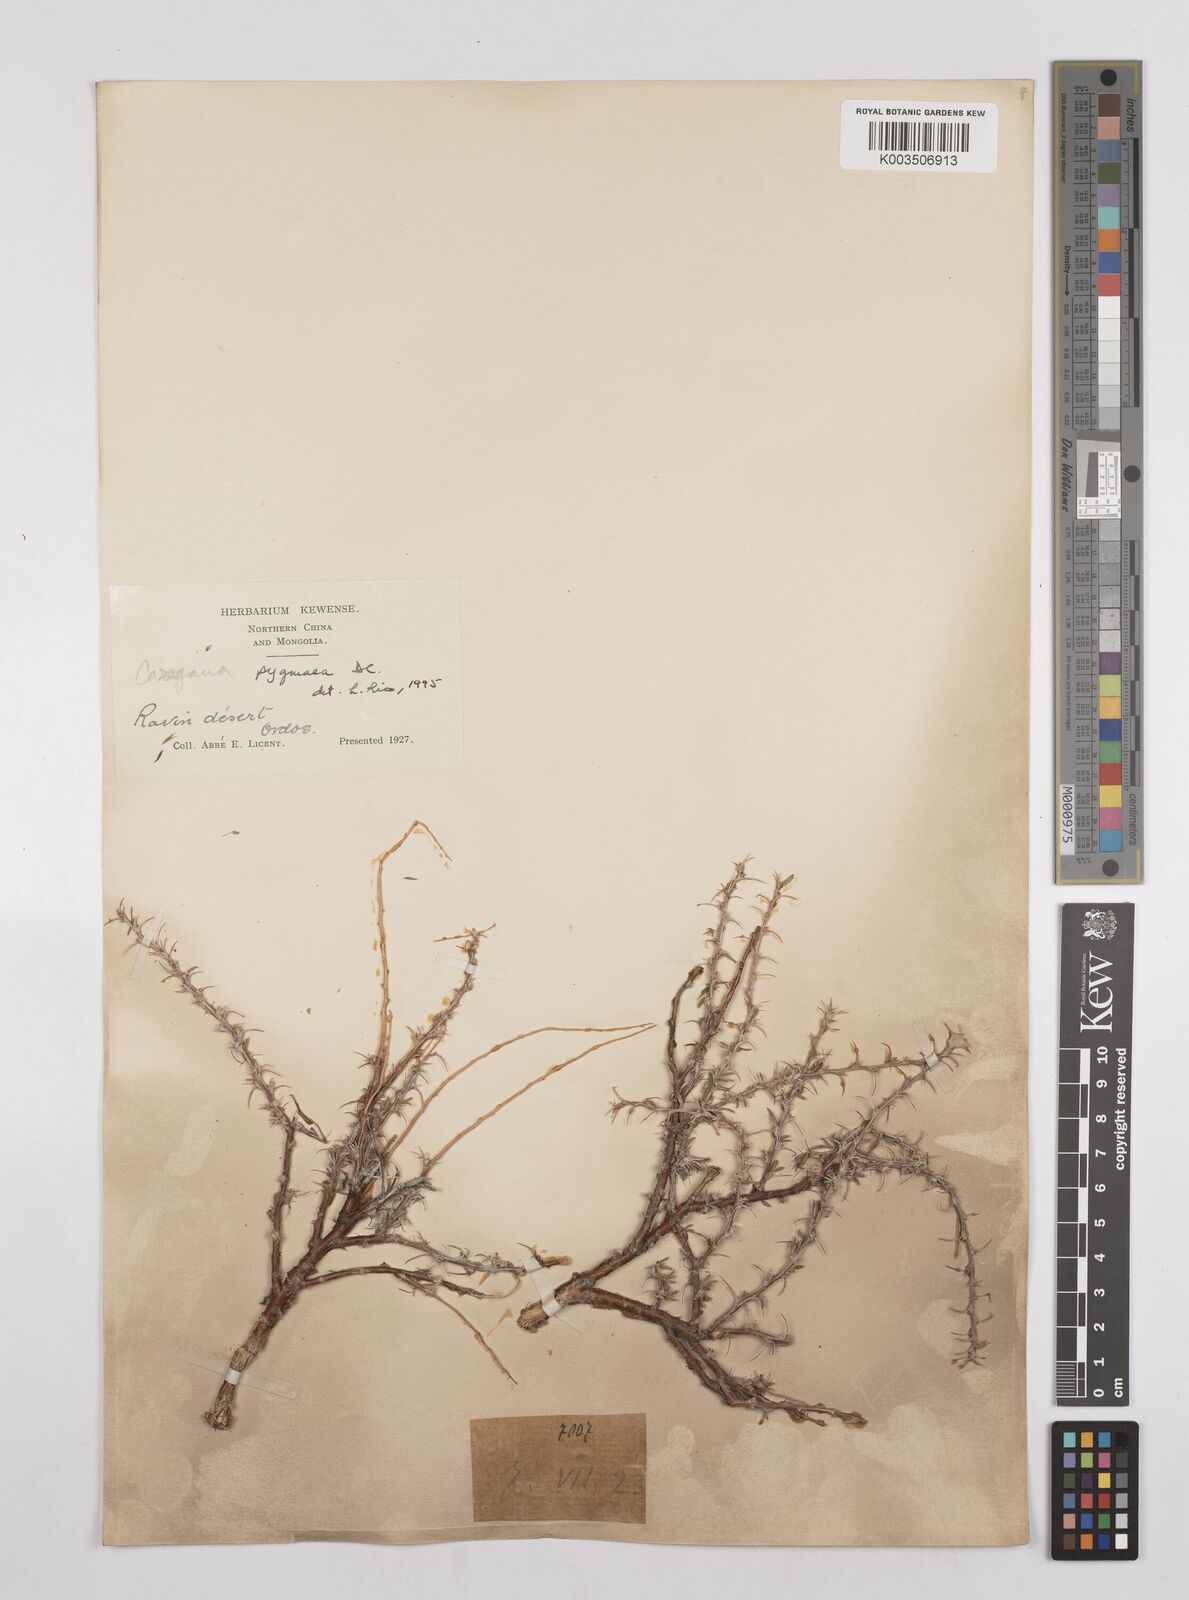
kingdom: Plantae
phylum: Tracheophyta
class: Magnoliopsida
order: Fabales
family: Fabaceae
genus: Caragana
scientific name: Caragana pygmaea
